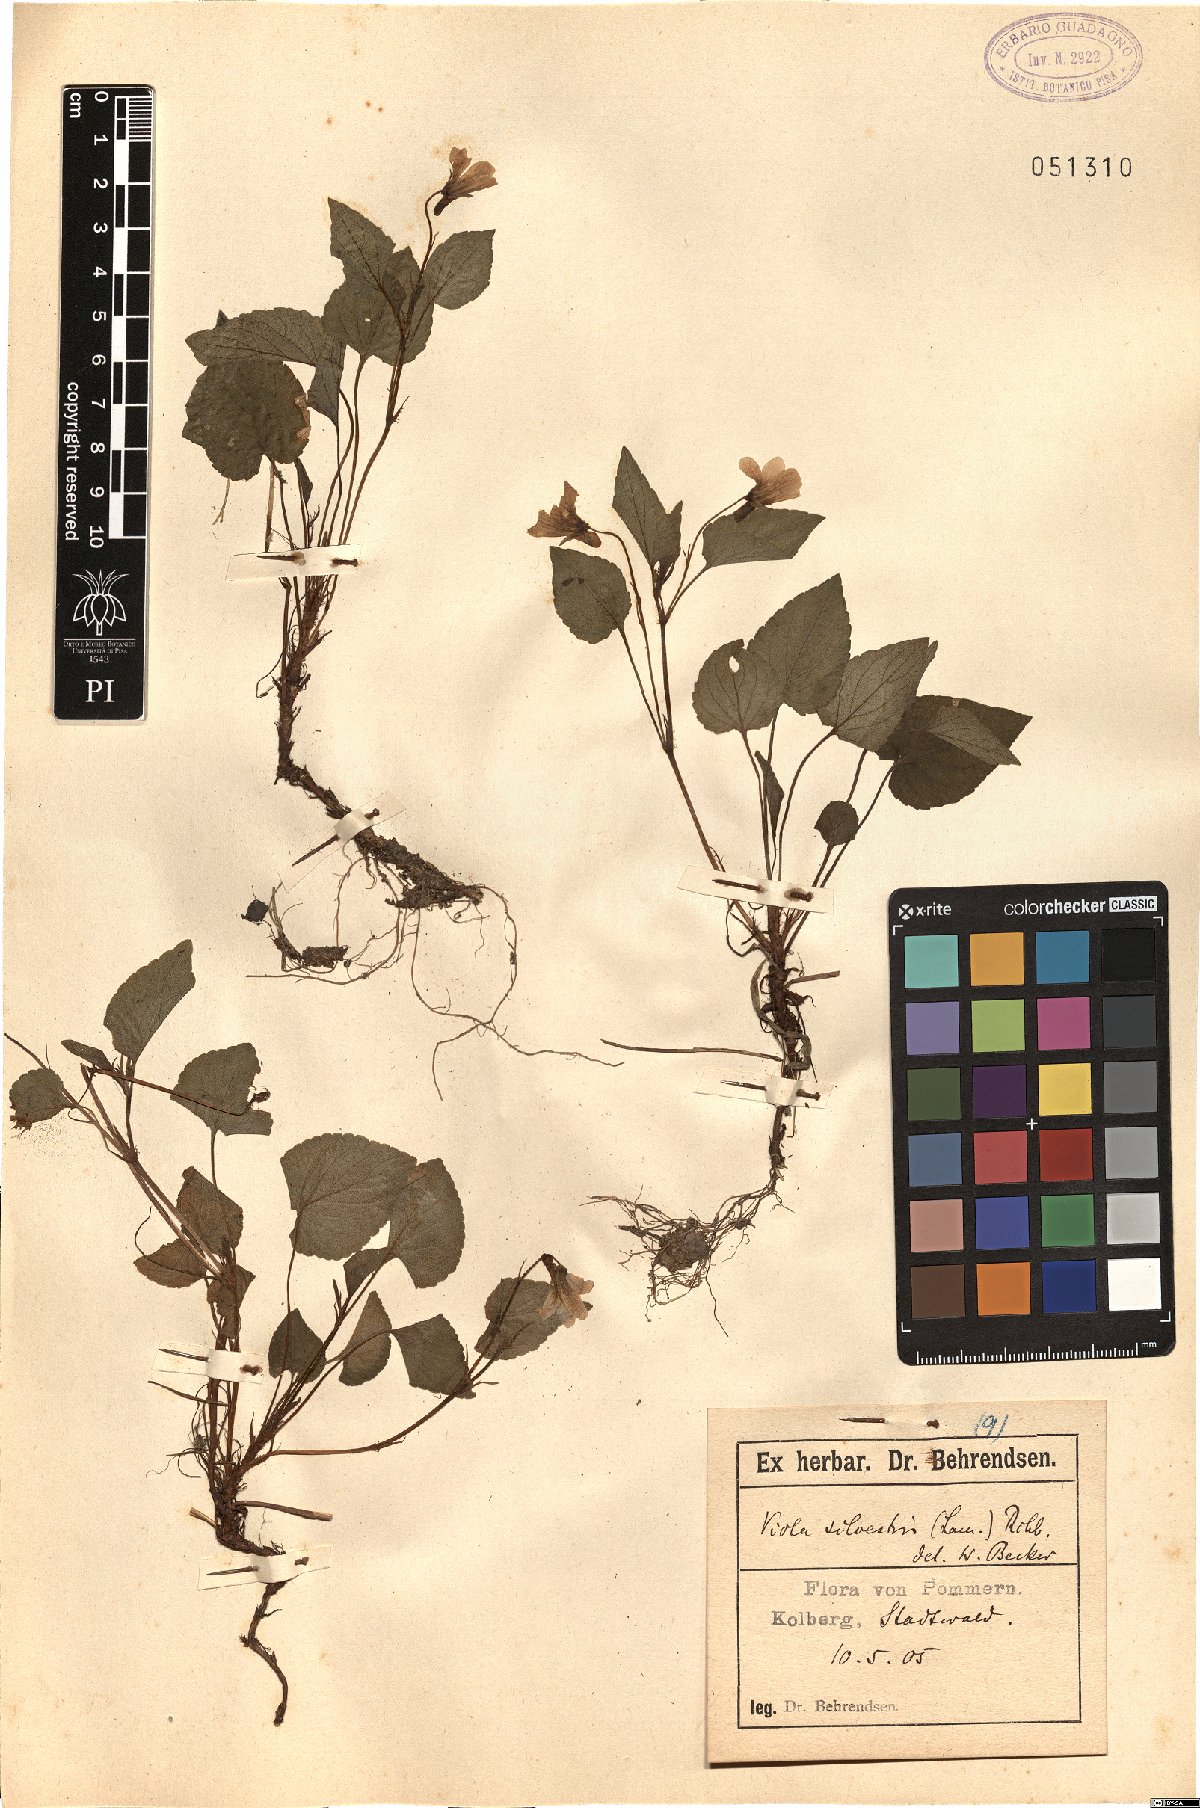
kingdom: Plantae
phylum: Tracheophyta
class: Magnoliopsida
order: Malpighiales
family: Violaceae
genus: Viola
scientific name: Viola canina
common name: Heath dog-violet
